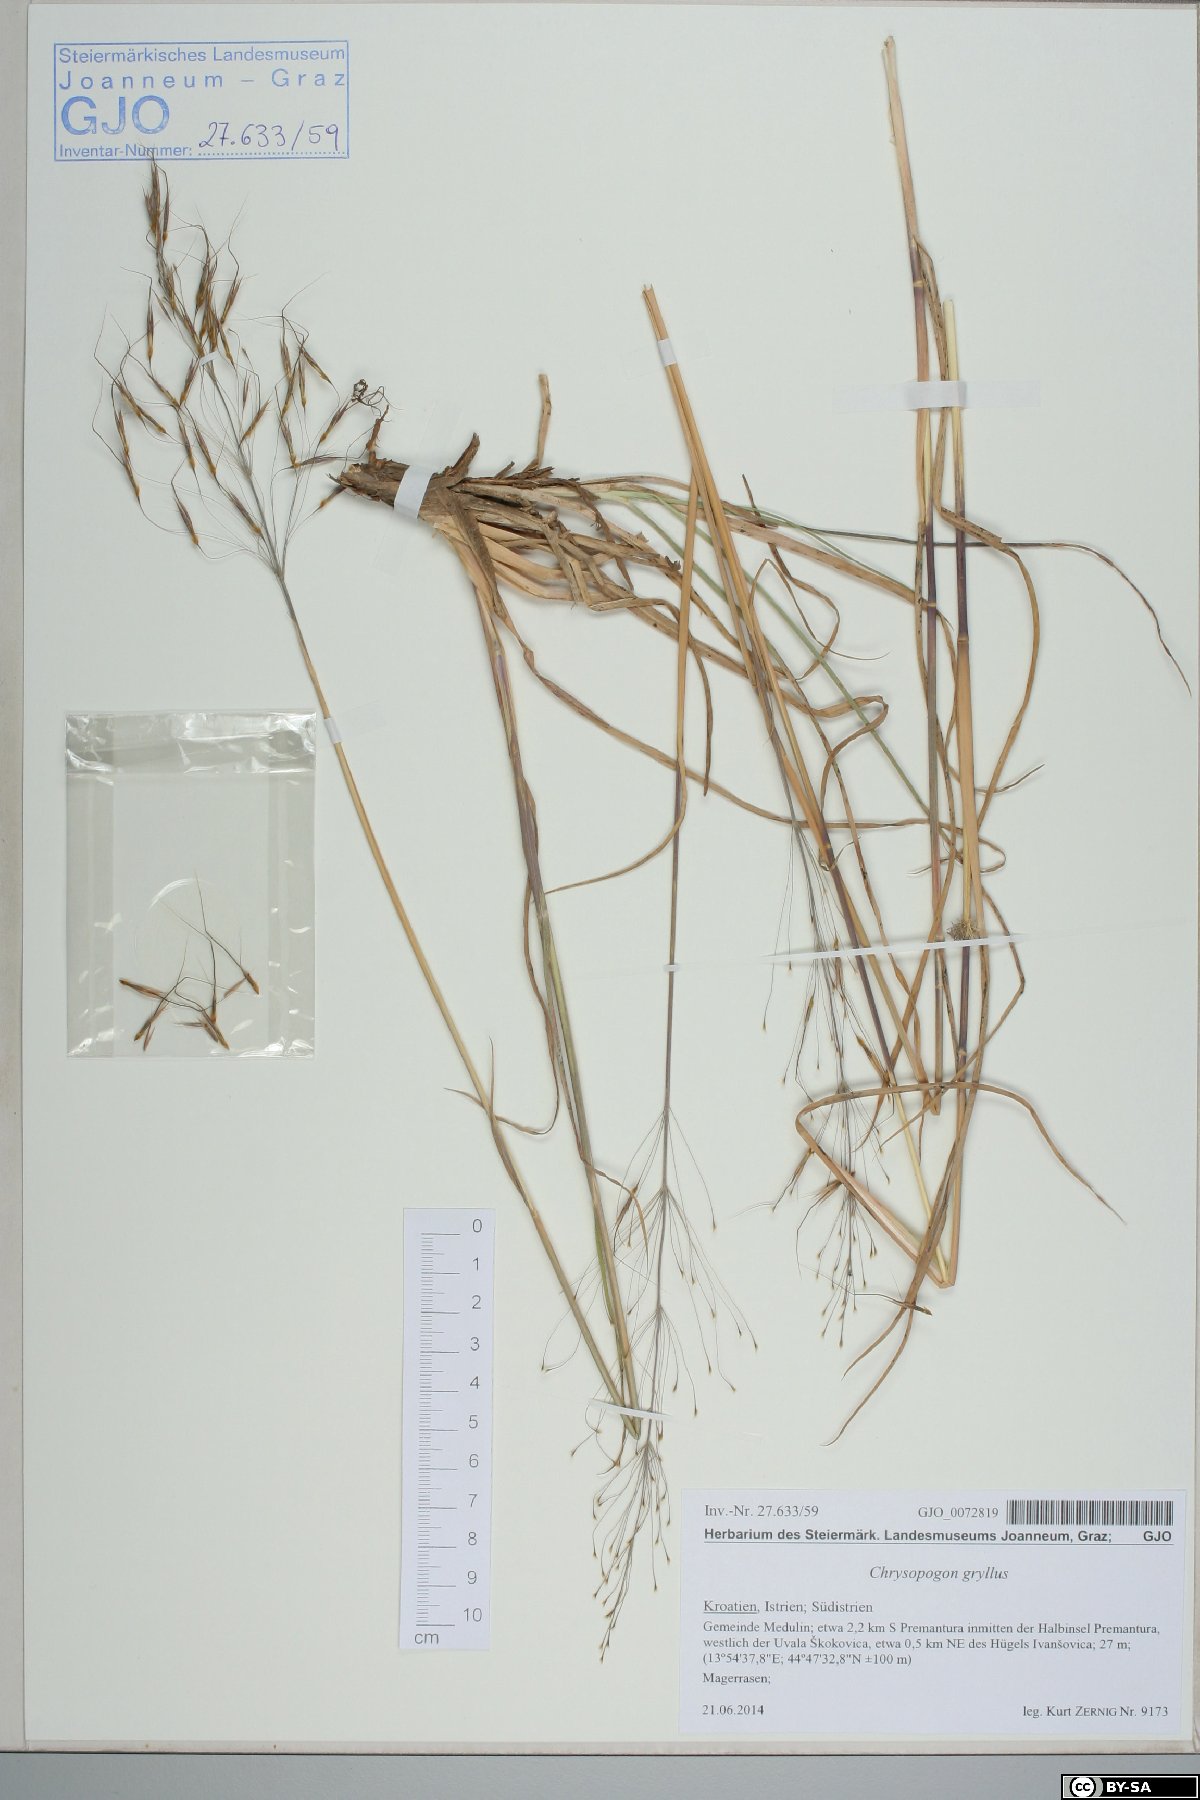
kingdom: Plantae
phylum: Tracheophyta
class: Liliopsida
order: Poales
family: Poaceae
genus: Chrysopogon
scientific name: Chrysopogon gryllus
